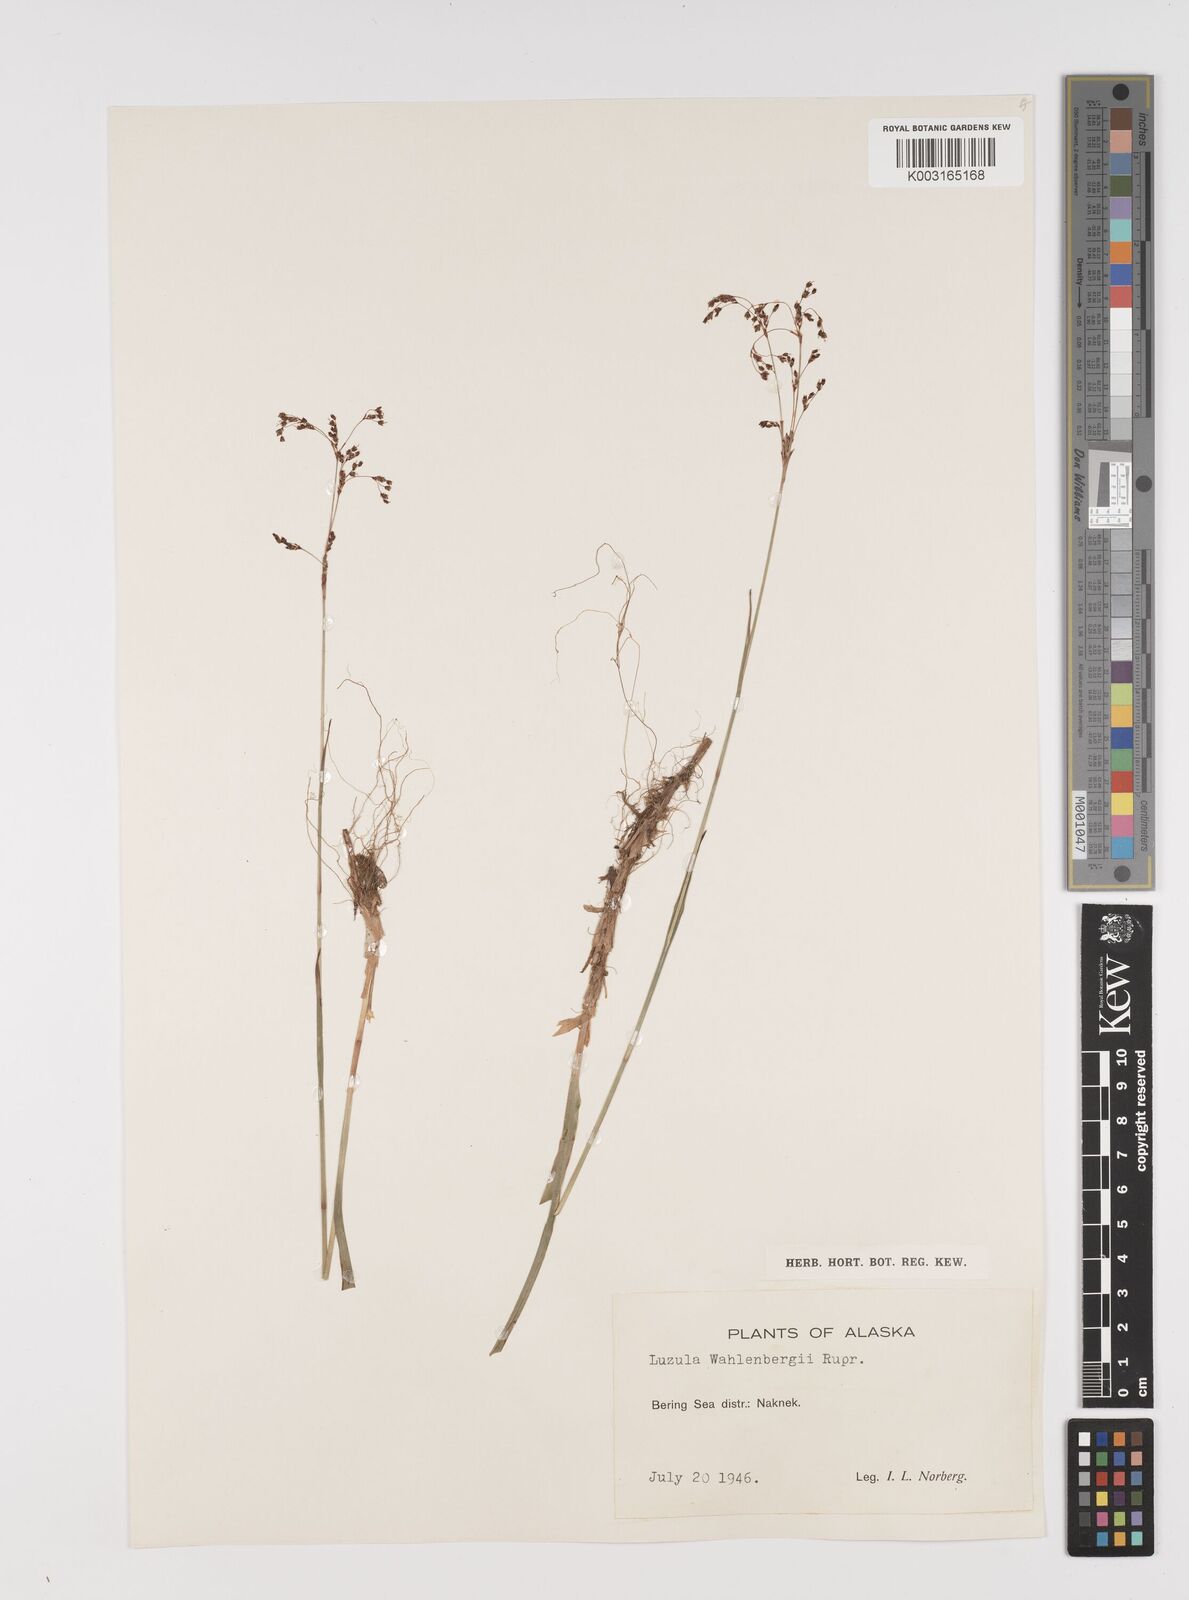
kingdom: Plantae
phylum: Tracheophyta
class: Liliopsida
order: Poales
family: Juncaceae
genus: Luzula
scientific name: Luzula wahlenbergii
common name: Wahlenberg's wood-rush
